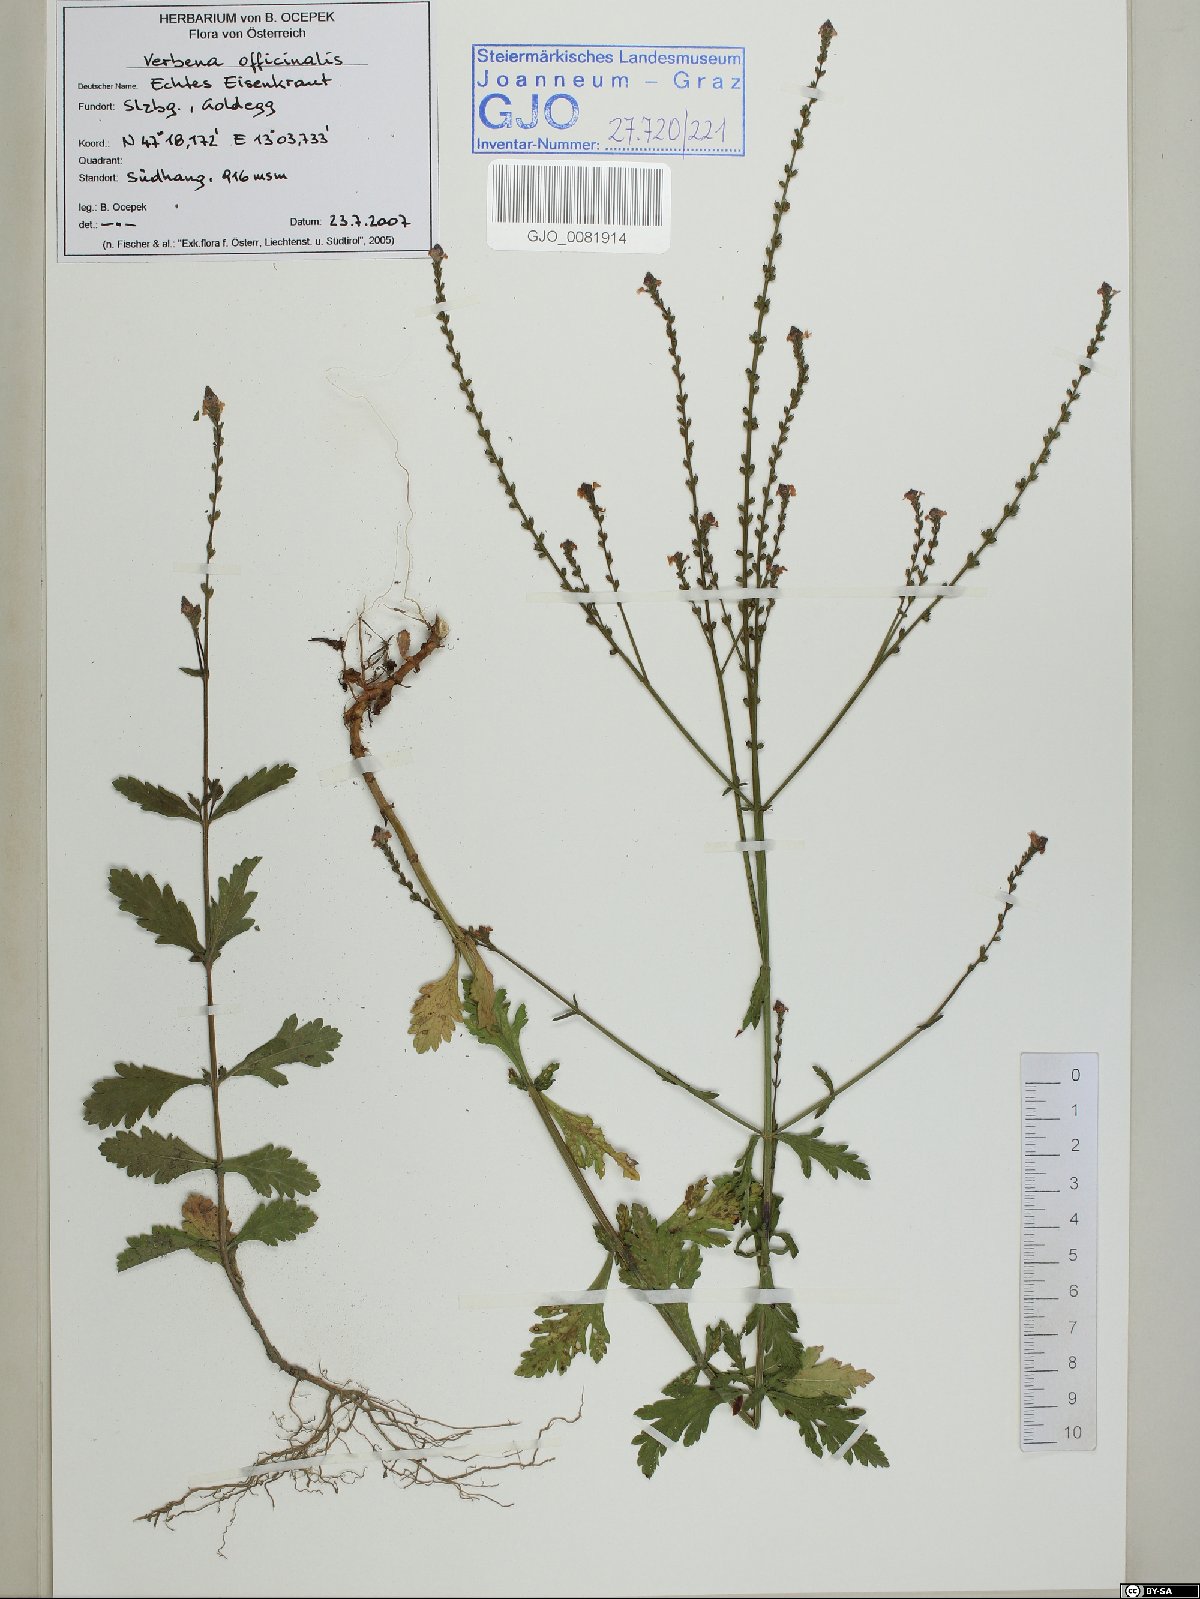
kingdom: Plantae
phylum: Tracheophyta
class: Magnoliopsida
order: Lamiales
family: Verbenaceae
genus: Verbena
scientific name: Verbena officinalis
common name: Vervain
